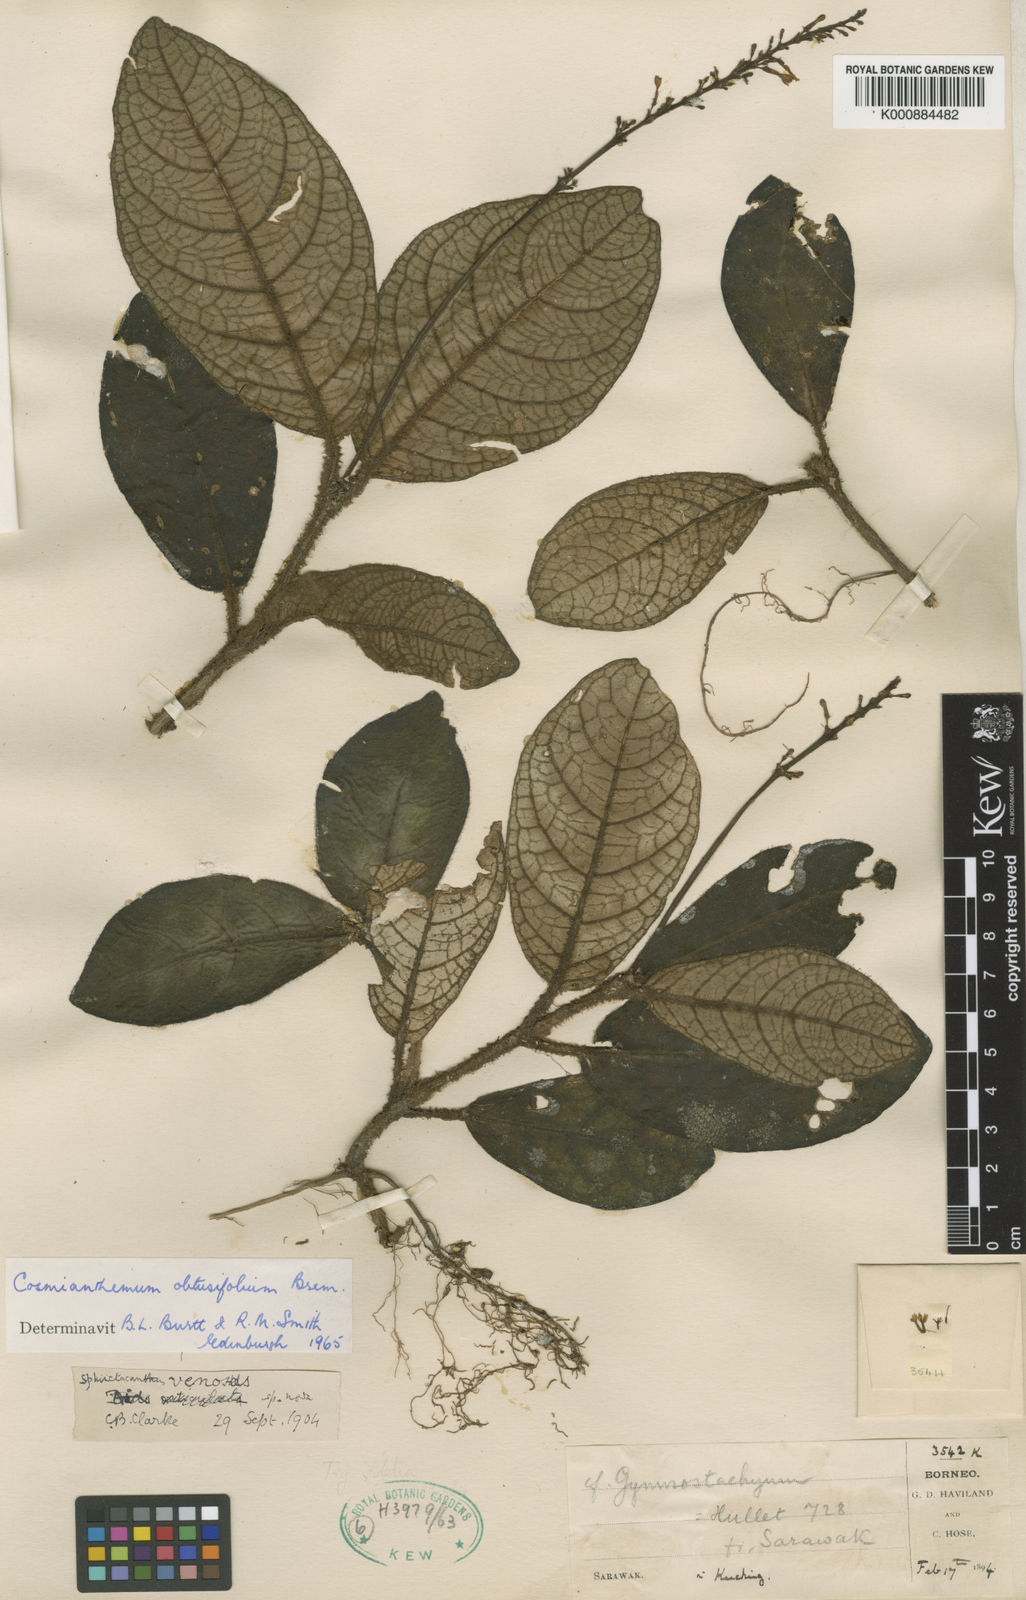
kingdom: Plantae
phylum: Tracheophyta
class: Magnoliopsida
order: Lamiales
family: Acanthaceae
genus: Cosmianthemum
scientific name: Cosmianthemum obtusifolium
